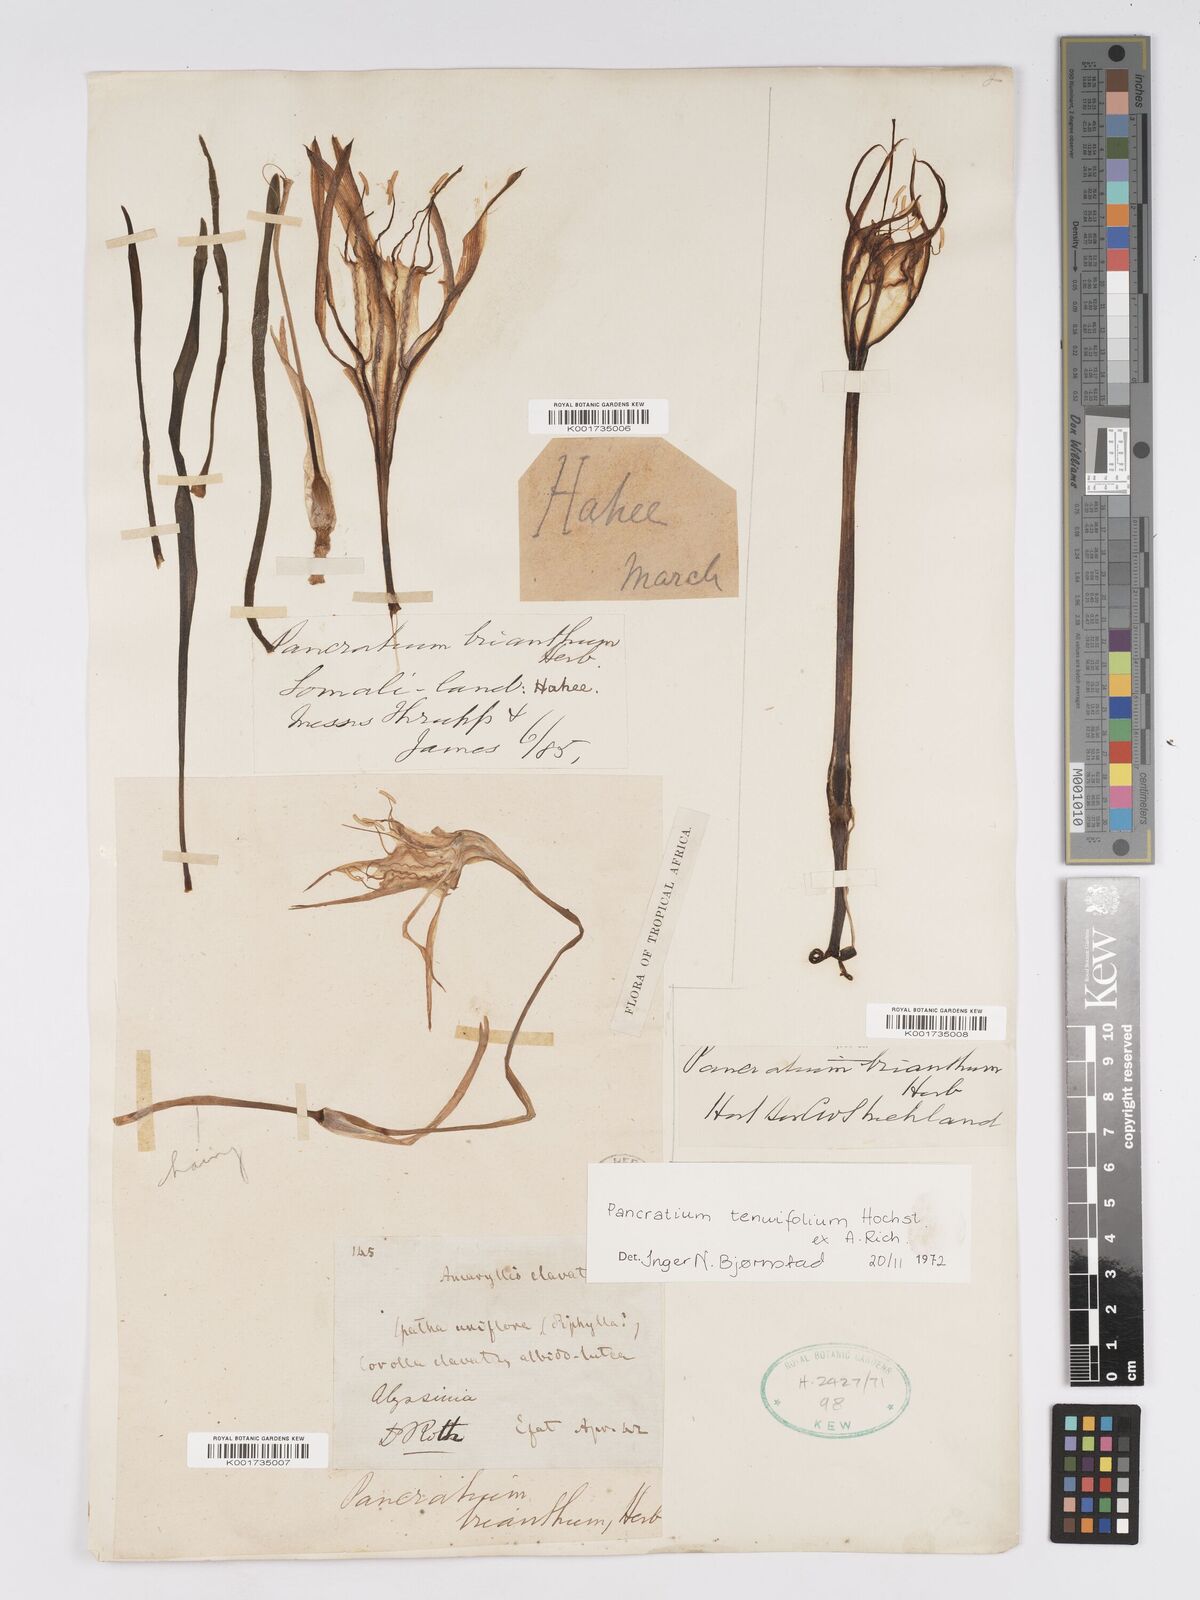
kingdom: Plantae
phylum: Tracheophyta
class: Liliopsida
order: Asparagales
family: Amaryllidaceae
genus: Pancratium
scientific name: Pancratium tenuifolium
